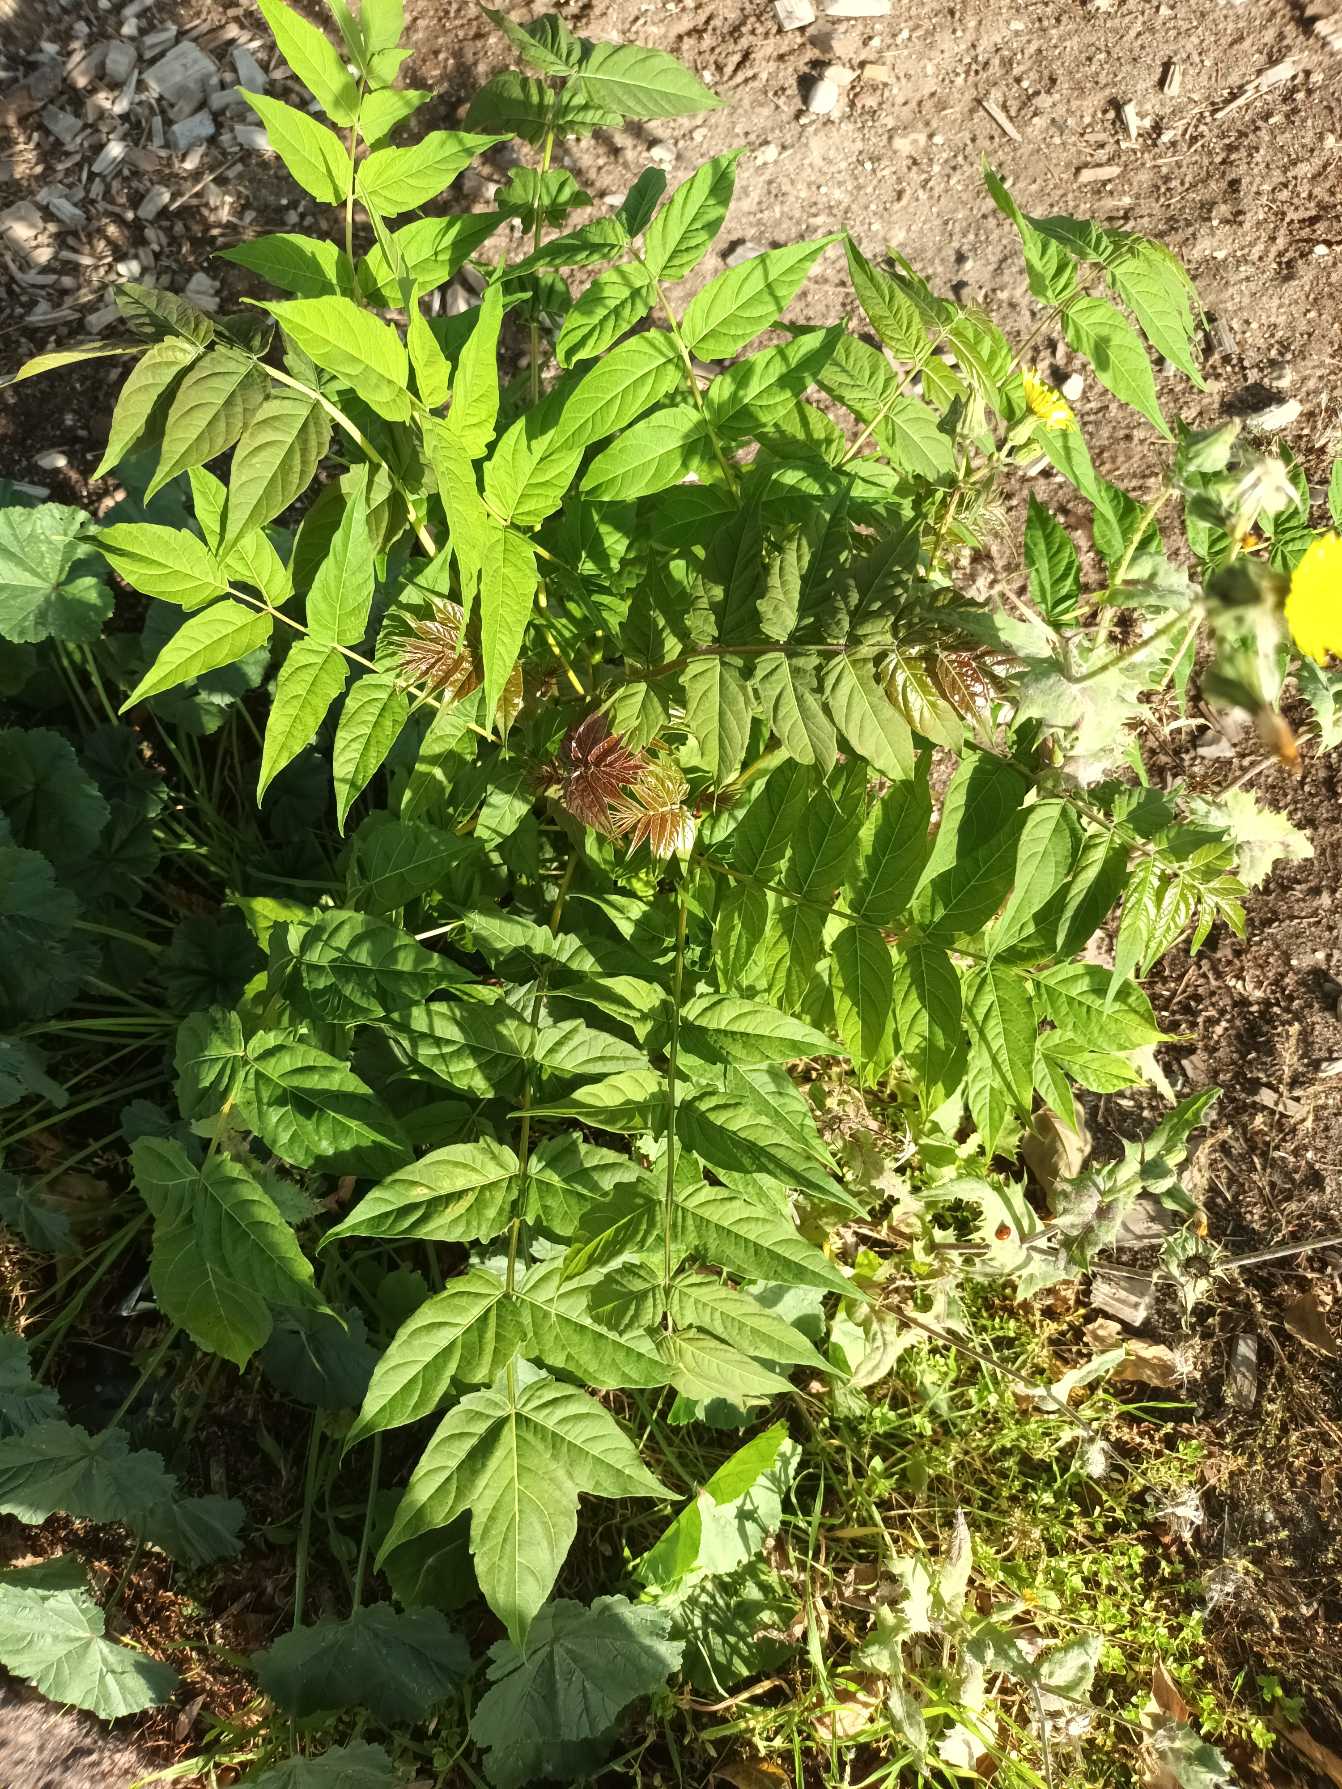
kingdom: Plantae
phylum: Tracheophyta
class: Magnoliopsida
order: Sapindales
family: Simaroubaceae
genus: Ailanthus
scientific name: Ailanthus altissima
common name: Skyrækker
